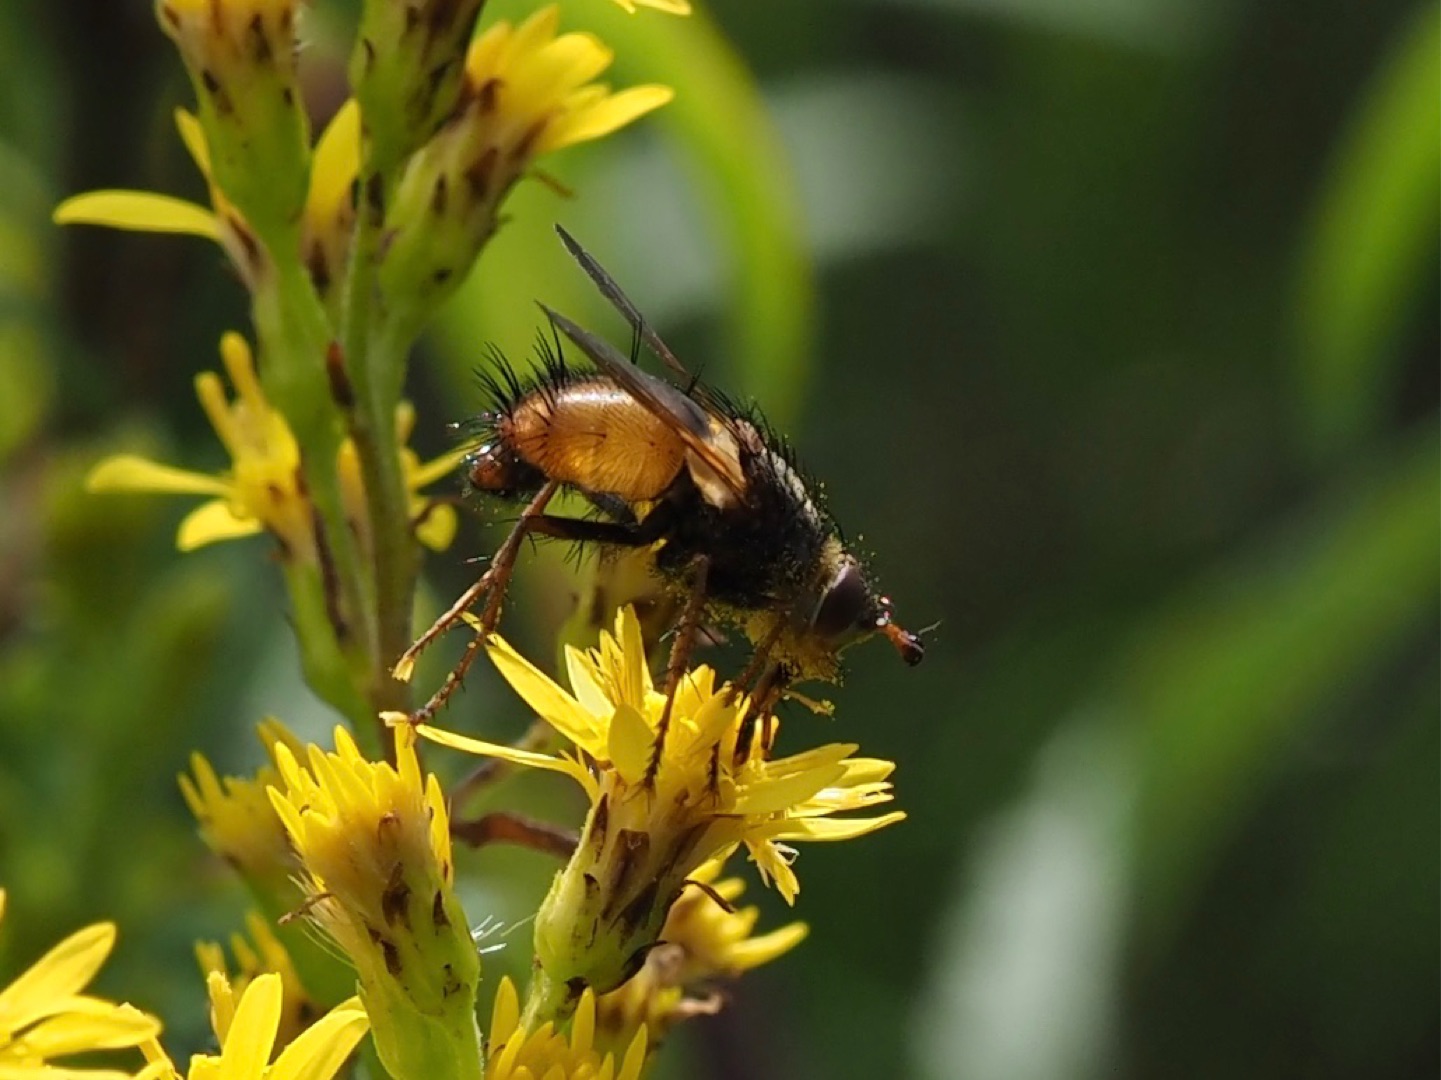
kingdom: Animalia
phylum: Arthropoda
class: Insecta
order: Diptera
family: Tachinidae
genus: Tachina
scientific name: Tachina fera
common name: Mellemfluen oskar
